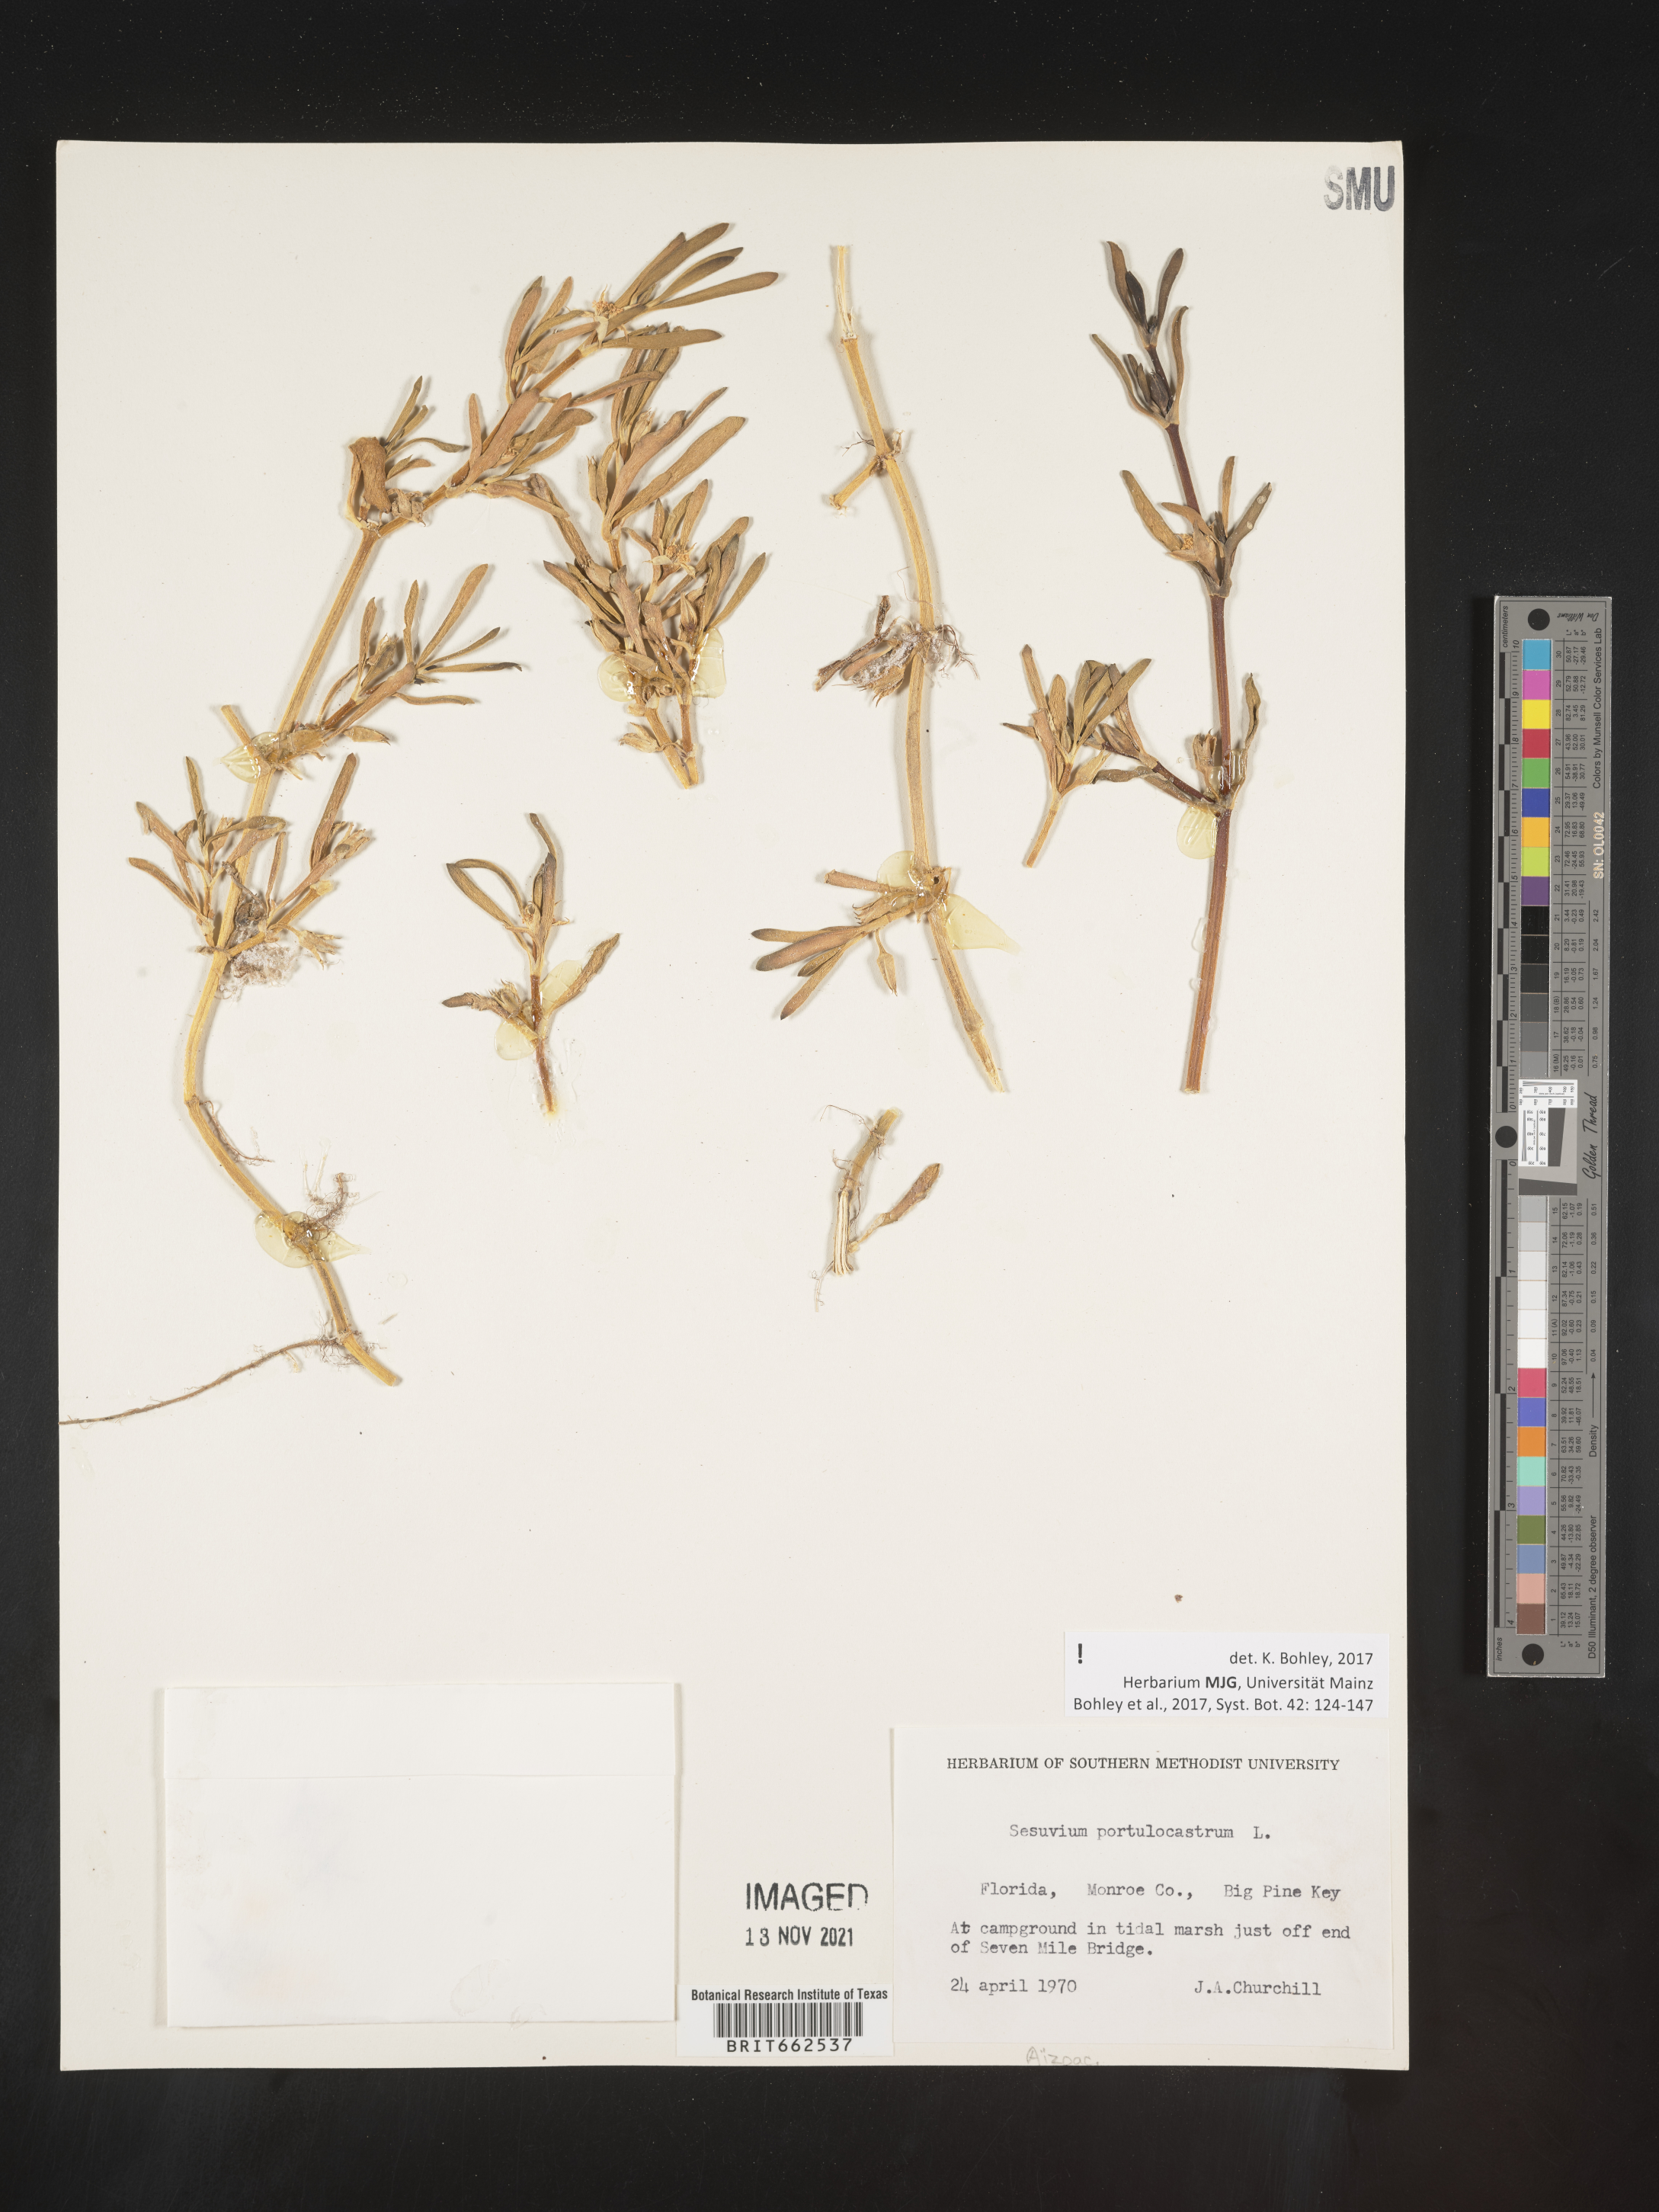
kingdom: Plantae
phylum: Tracheophyta
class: Magnoliopsida
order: Caryophyllales
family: Aizoaceae
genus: Sesuvium
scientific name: Sesuvium portulacastrum
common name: Sea-purslane
